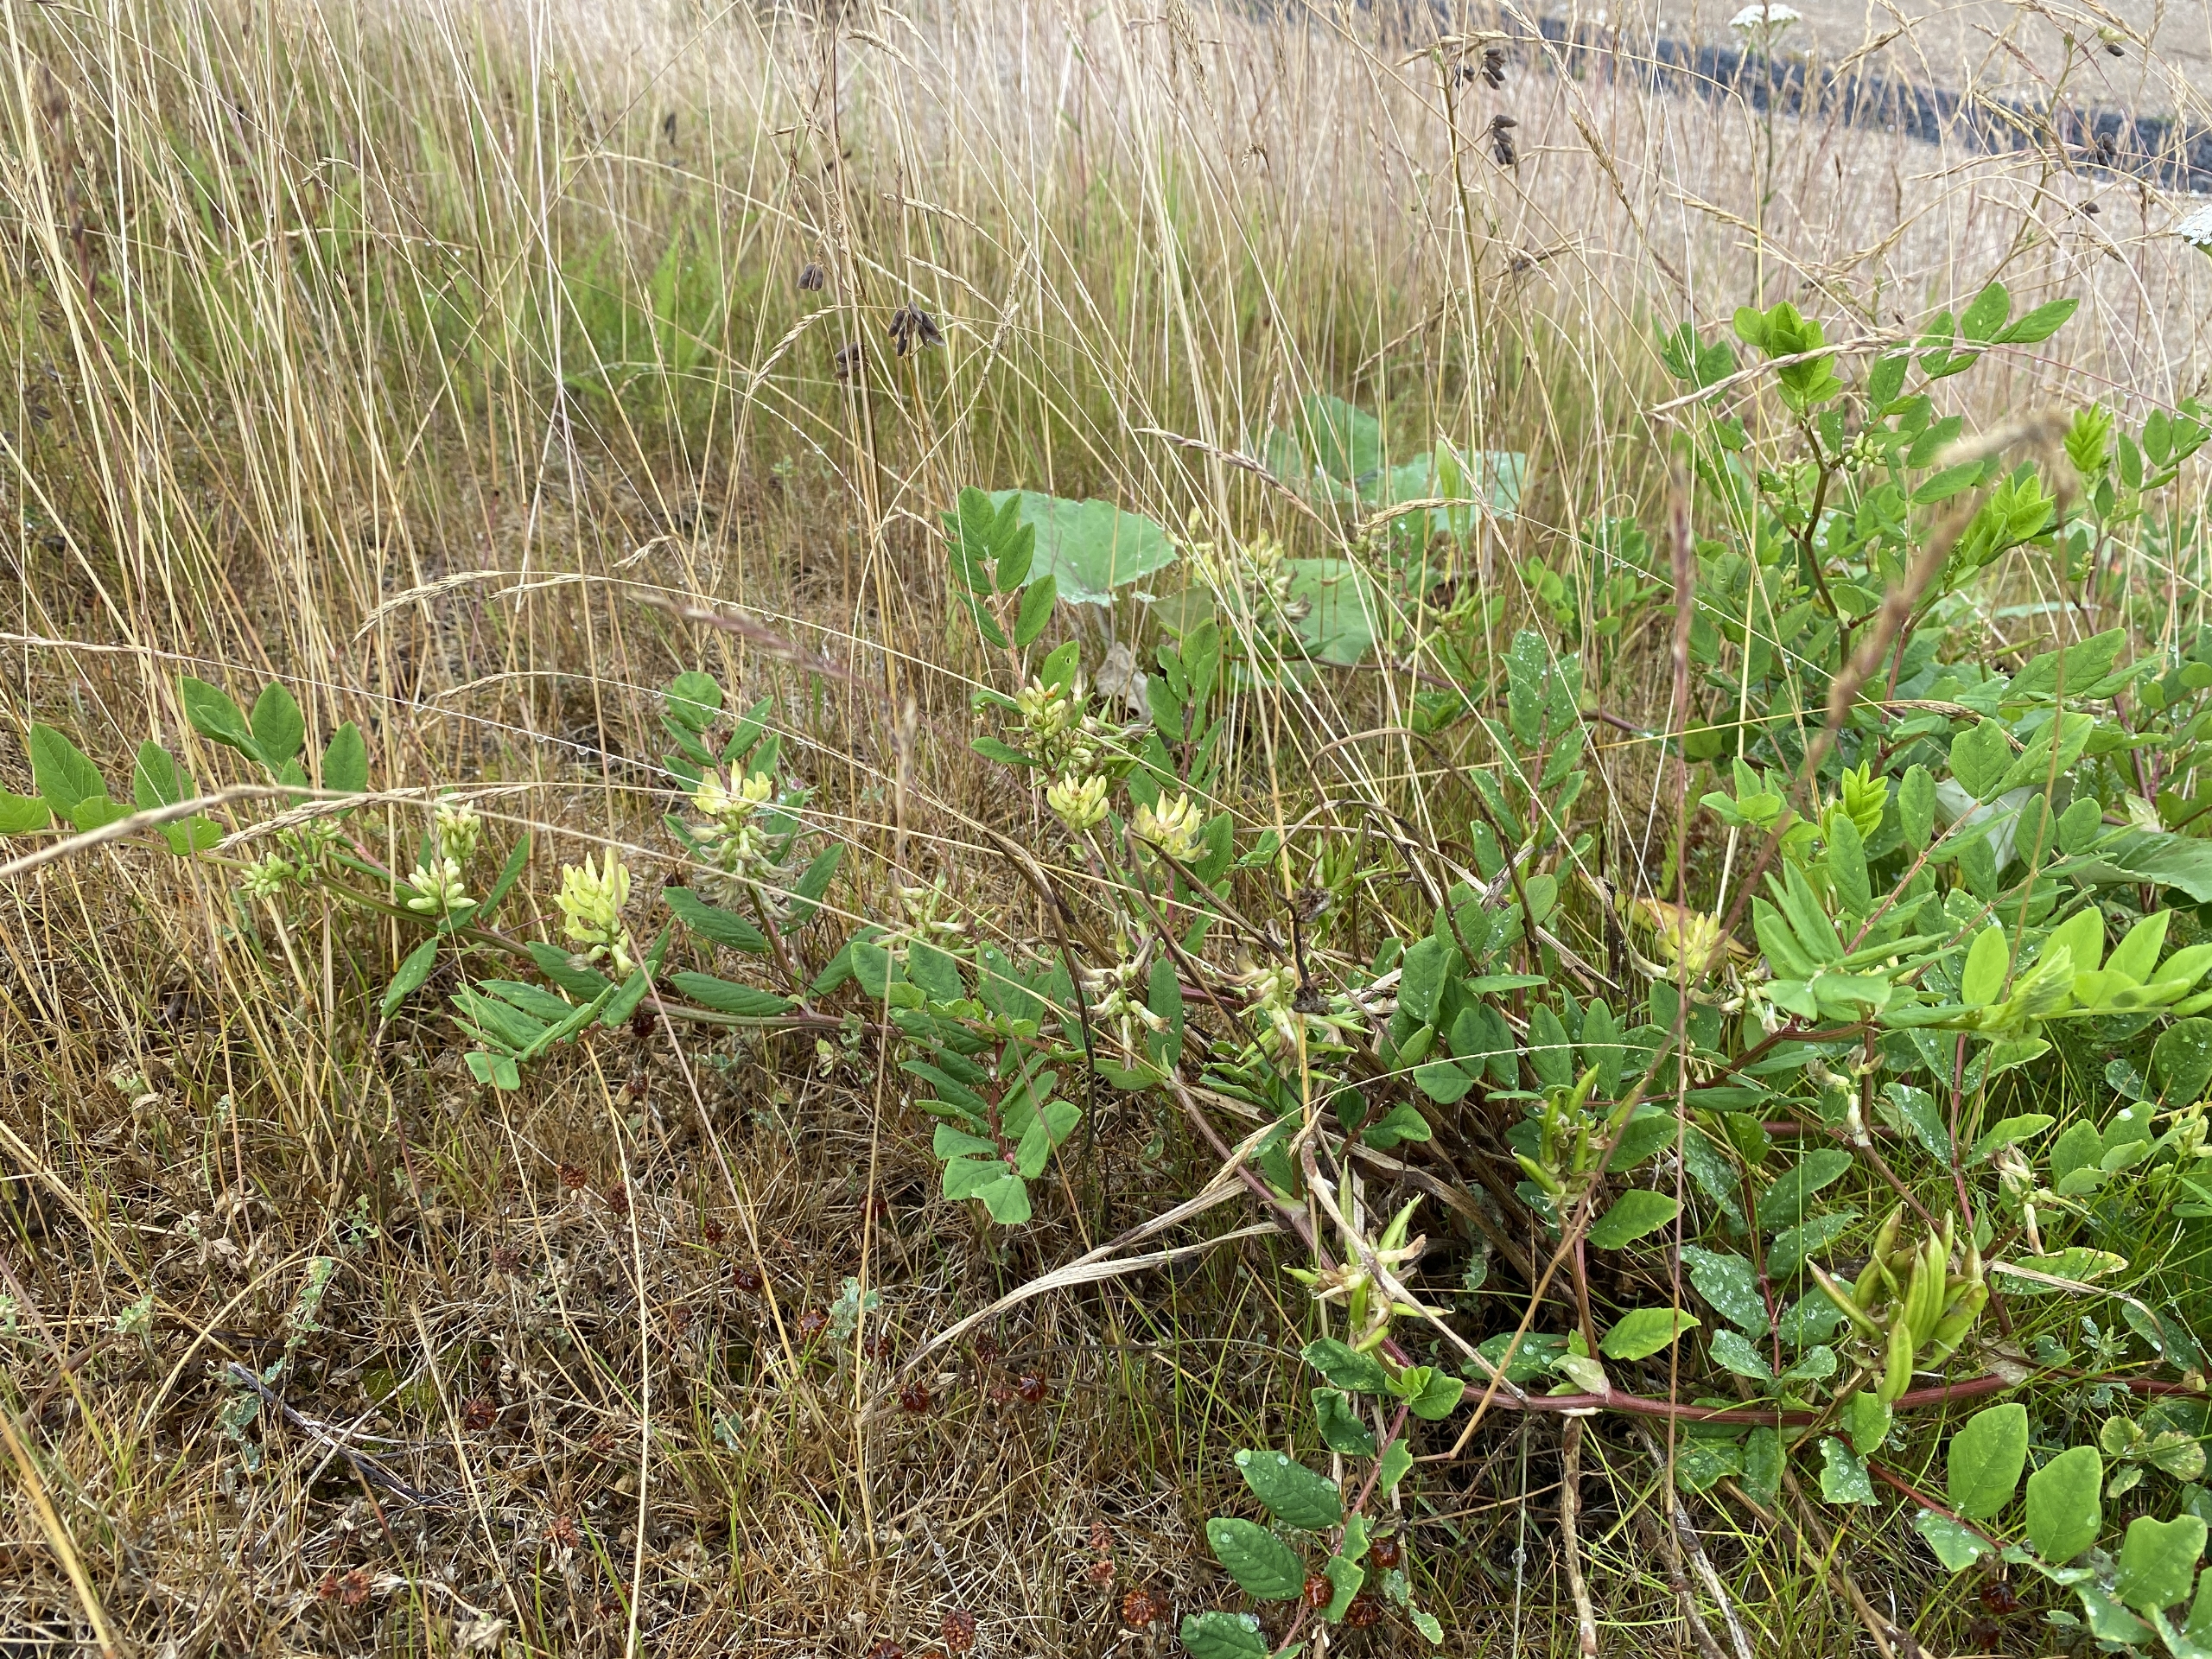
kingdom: Plantae
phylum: Tracheophyta
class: Magnoliopsida
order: Fabales
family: Fabaceae
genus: Astragalus
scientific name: Astragalus glycyphyllos
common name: Sød astragel
